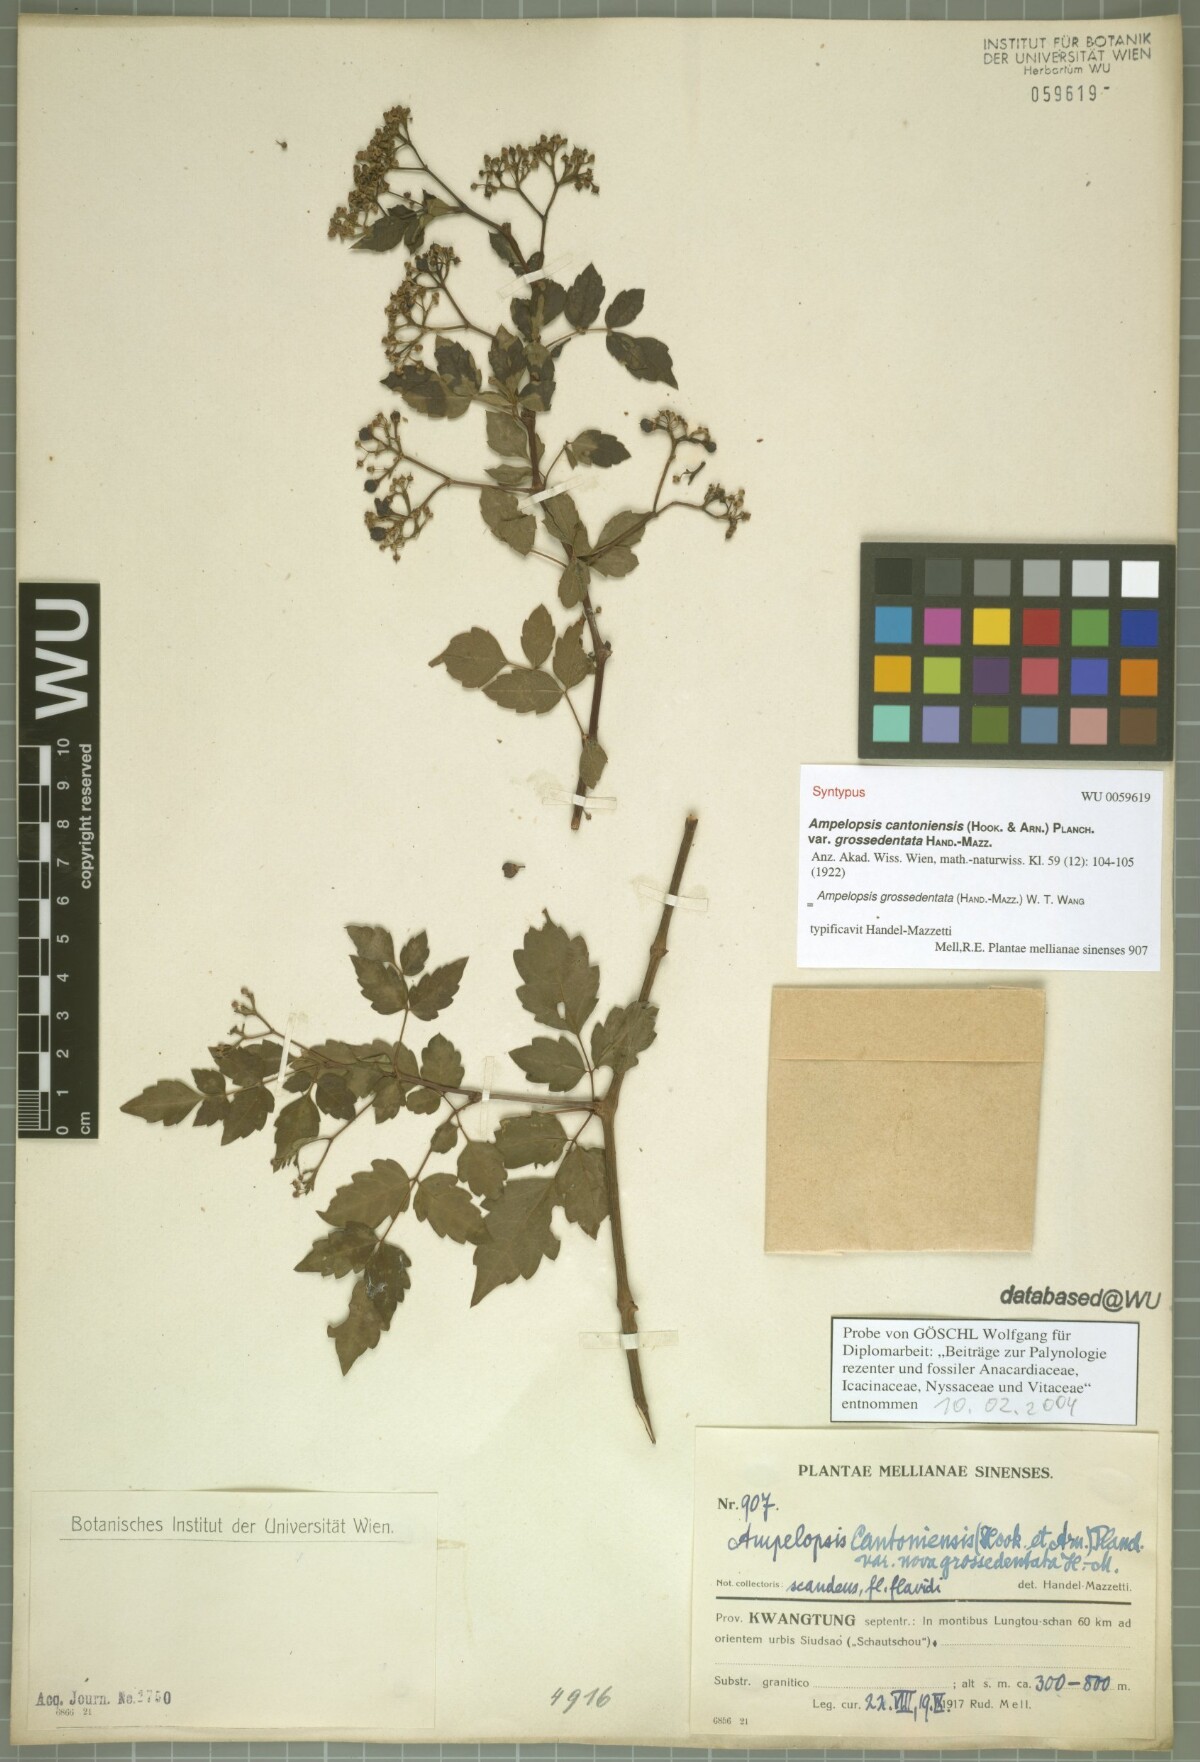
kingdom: Plantae
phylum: Tracheophyta
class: Magnoliopsida
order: Vitales
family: Vitaceae
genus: Nekemias
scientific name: Nekemias grossedentata
